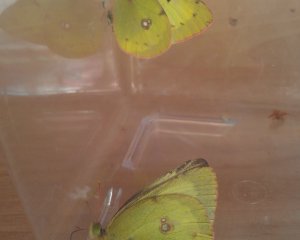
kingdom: Animalia
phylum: Arthropoda
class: Insecta
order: Lepidoptera
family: Pieridae
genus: Colias
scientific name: Colias philodice
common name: Clouded Sulphur
